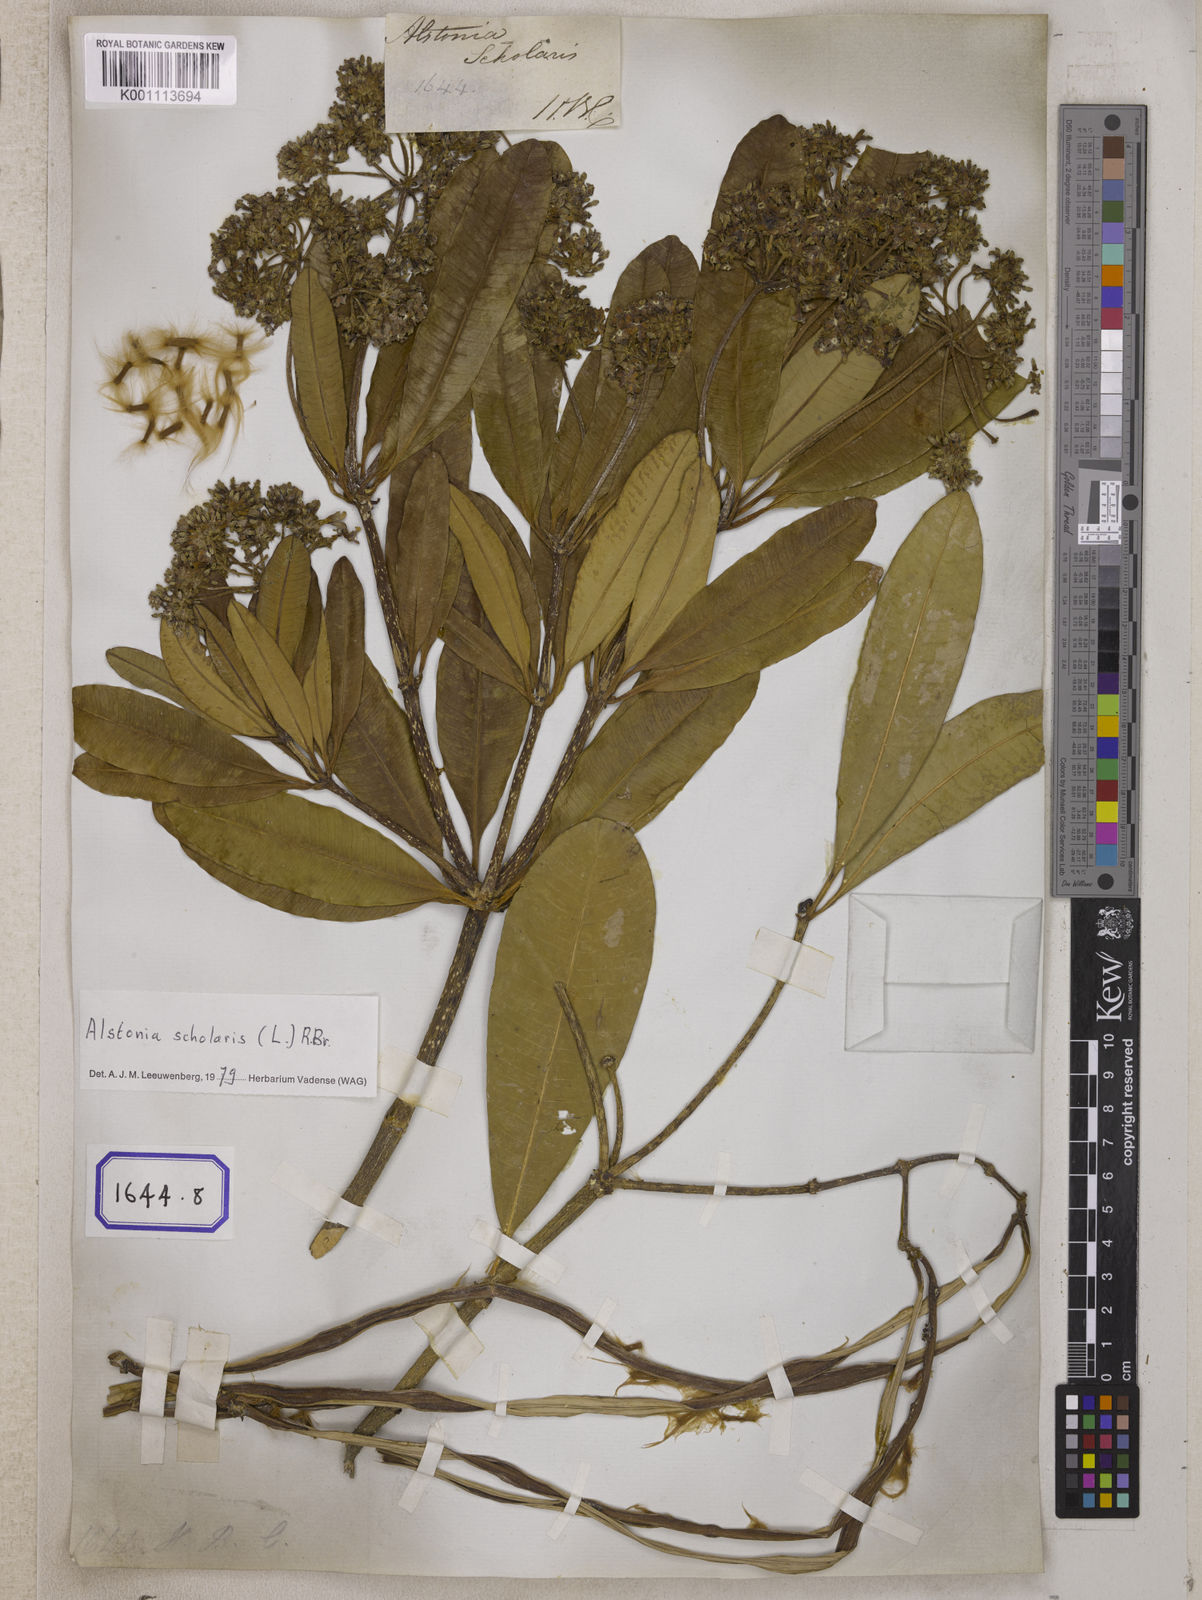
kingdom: Plantae
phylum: Tracheophyta
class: Magnoliopsida
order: Gentianales
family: Apocynaceae
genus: Alstonia
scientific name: Alstonia scholaris
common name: White cheesewood
